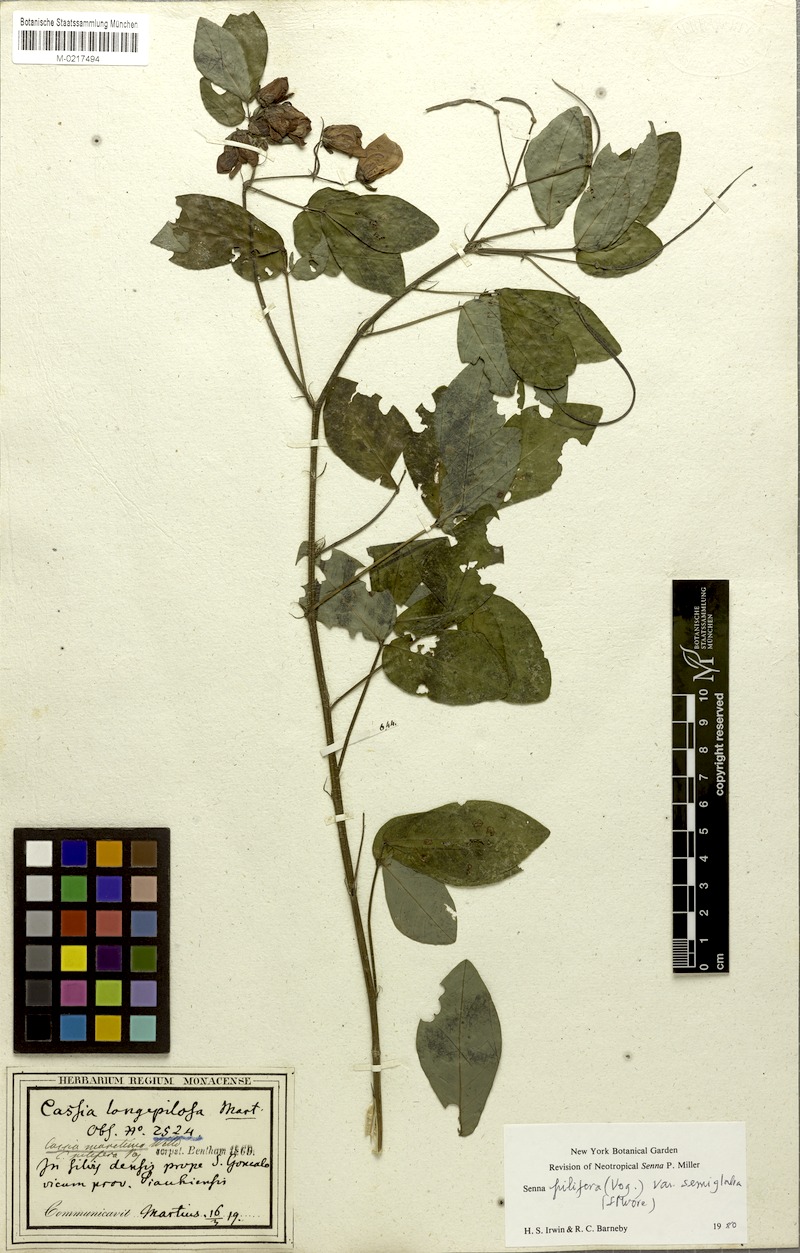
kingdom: Plantae
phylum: Tracheophyta
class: Magnoliopsida
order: Fabales
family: Fabaceae
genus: Senna
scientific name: Senna pilifera
